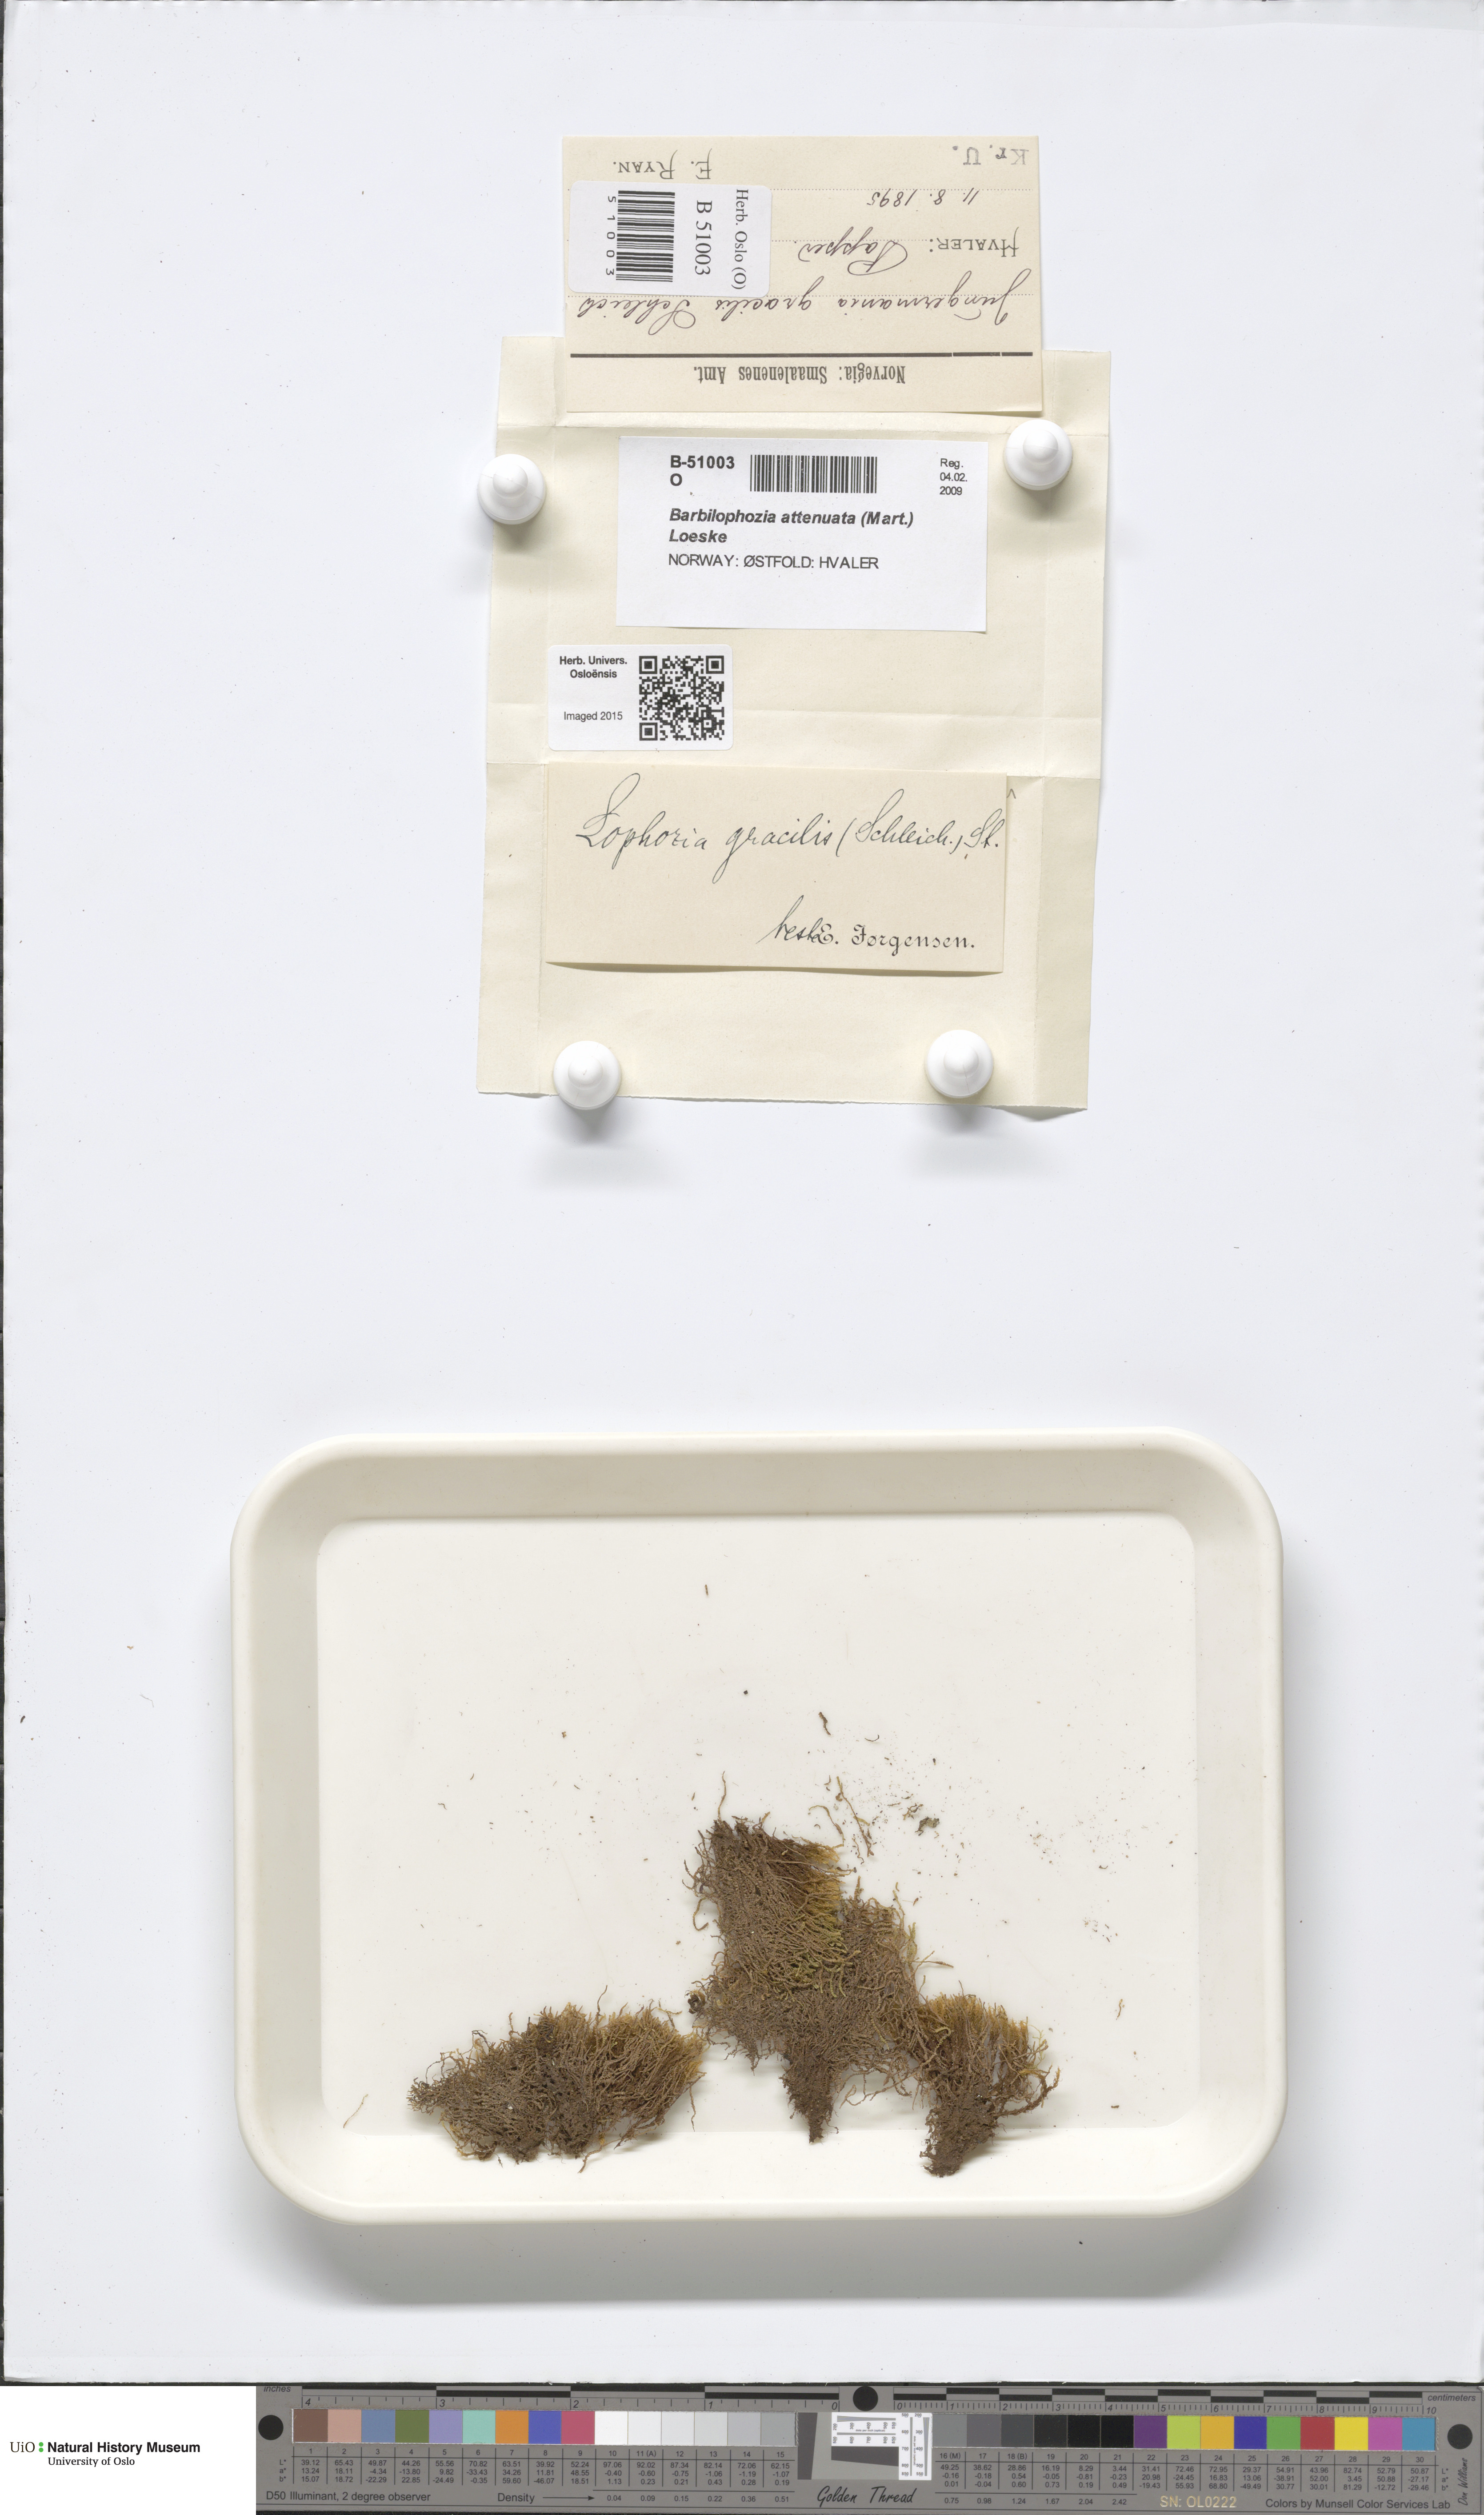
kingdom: Plantae
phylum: Marchantiophyta
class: Jungermanniopsida
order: Jungermanniales
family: Anastrophyllaceae
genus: Neoorthocaulis
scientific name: Neoorthocaulis attenuatus
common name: Trunk pawwort
